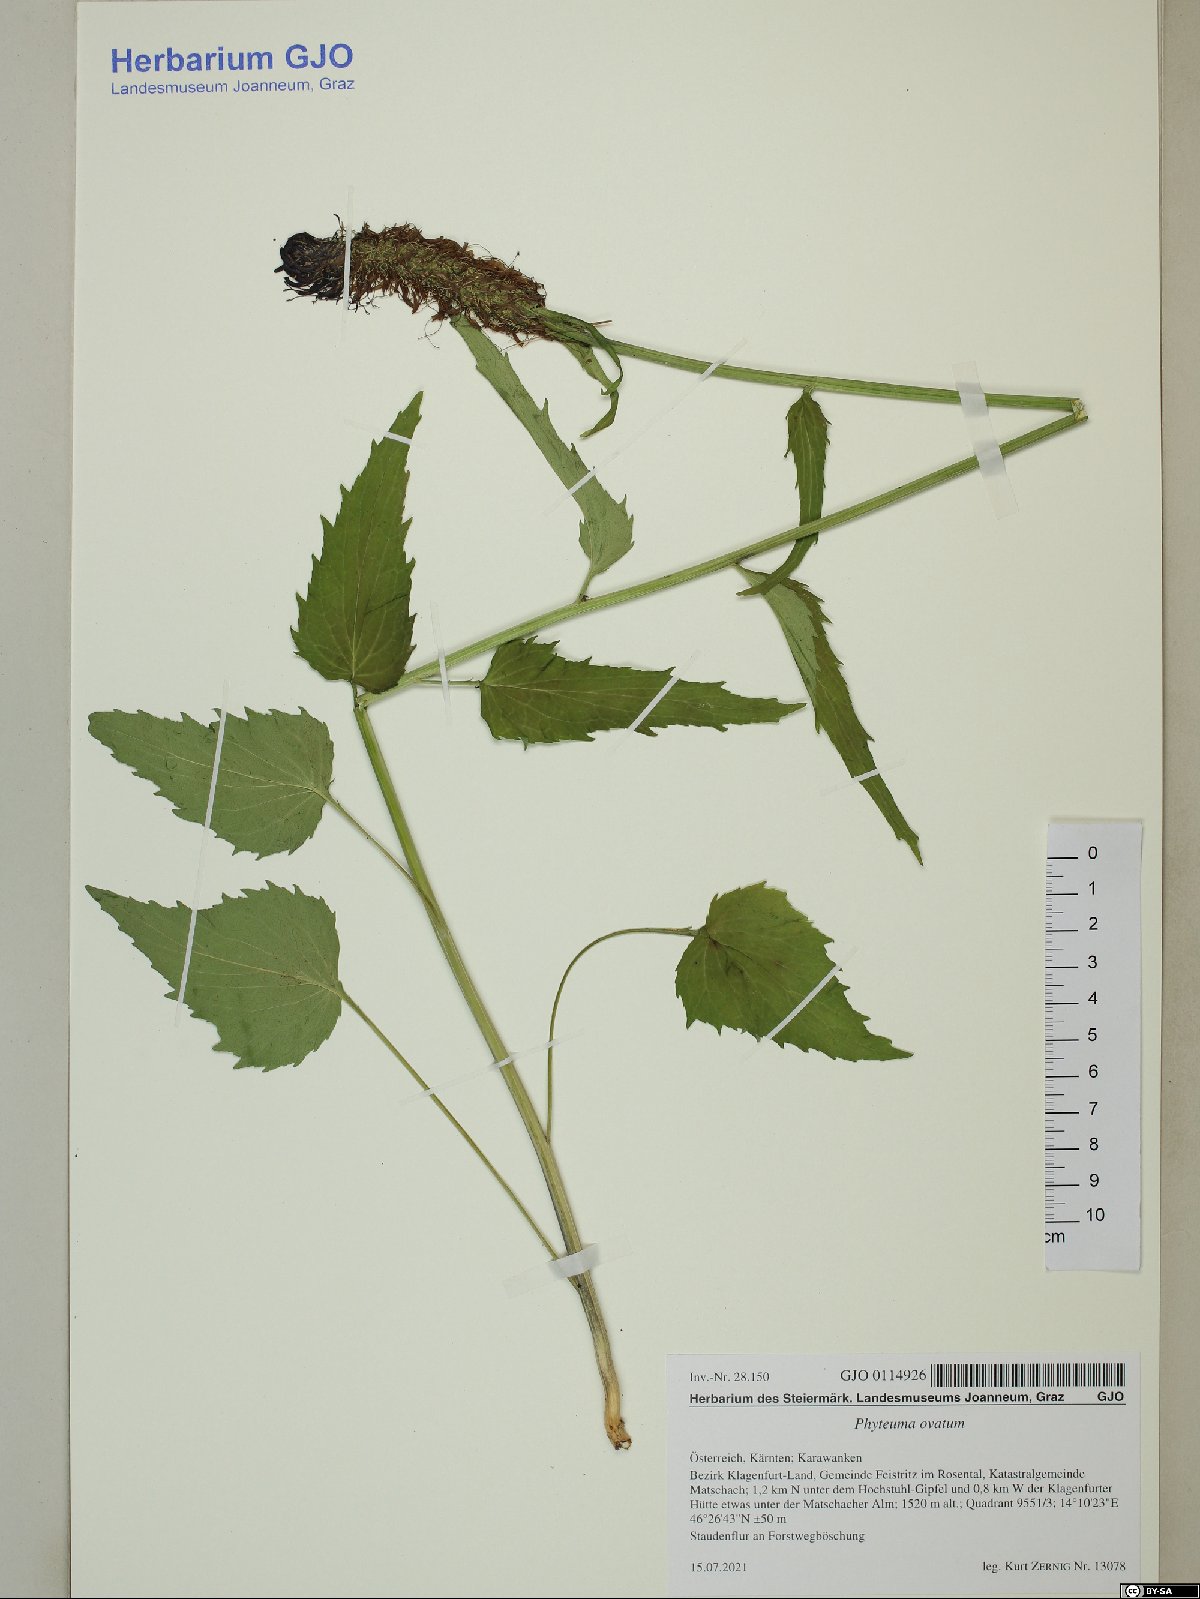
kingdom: Plantae
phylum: Tracheophyta
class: Magnoliopsida
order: Asterales
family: Campanulaceae
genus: Phyteuma
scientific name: Phyteuma ovatum
